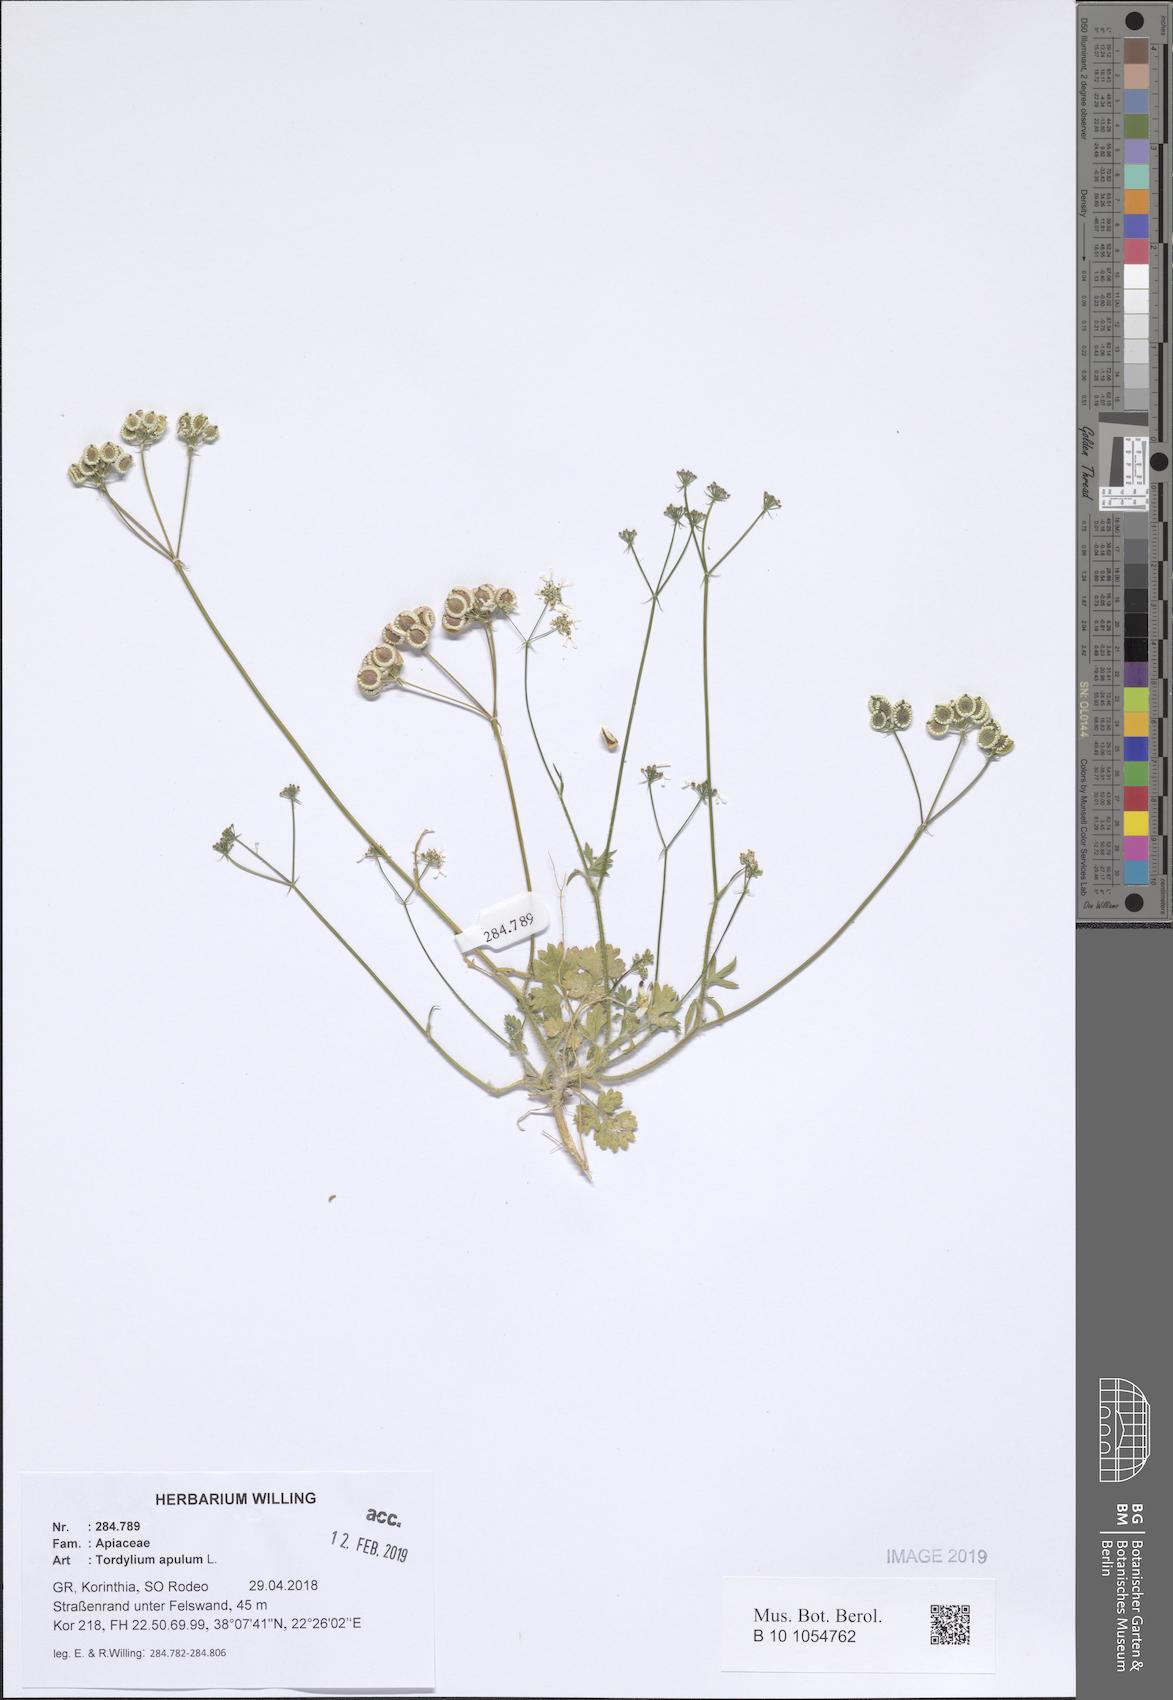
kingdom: Plantae
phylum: Tracheophyta
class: Magnoliopsida
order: Apiales
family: Apiaceae
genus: Tordylium
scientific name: Tordylium apulum
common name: Mediterranean hartwort
